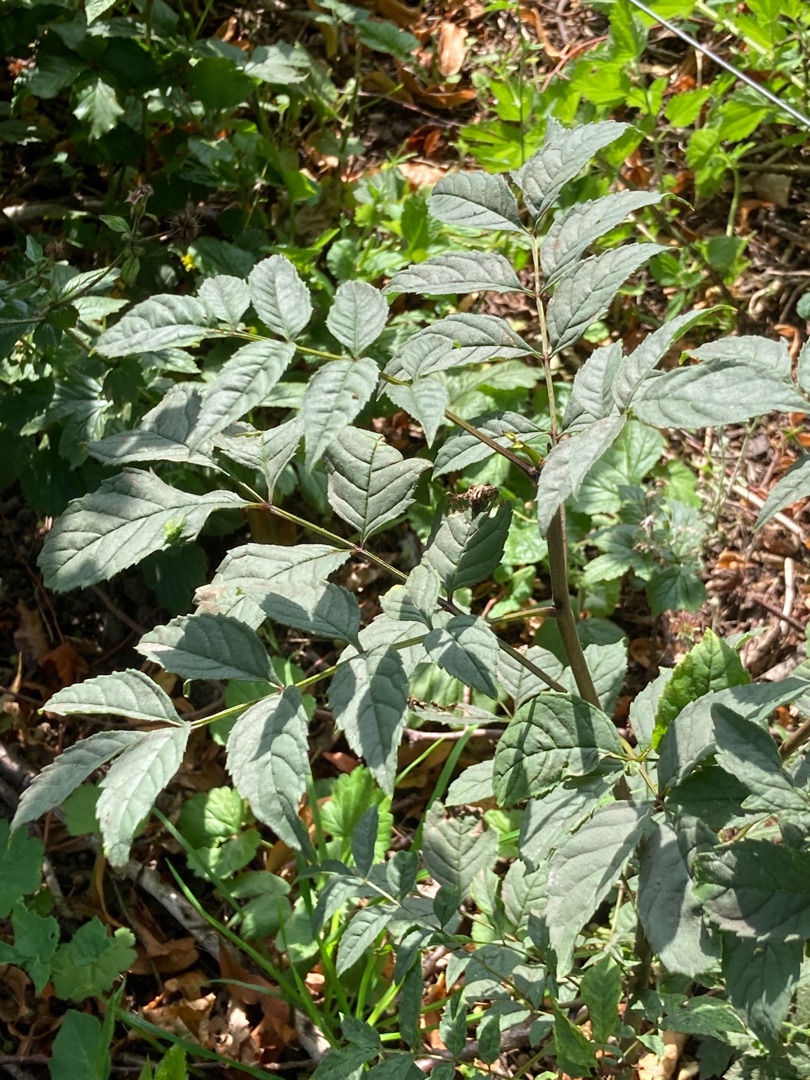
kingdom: Plantae
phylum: Tracheophyta
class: Magnoliopsida
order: Lamiales
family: Oleaceae
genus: Fraxinus
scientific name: Fraxinus excelsior
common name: Ask
